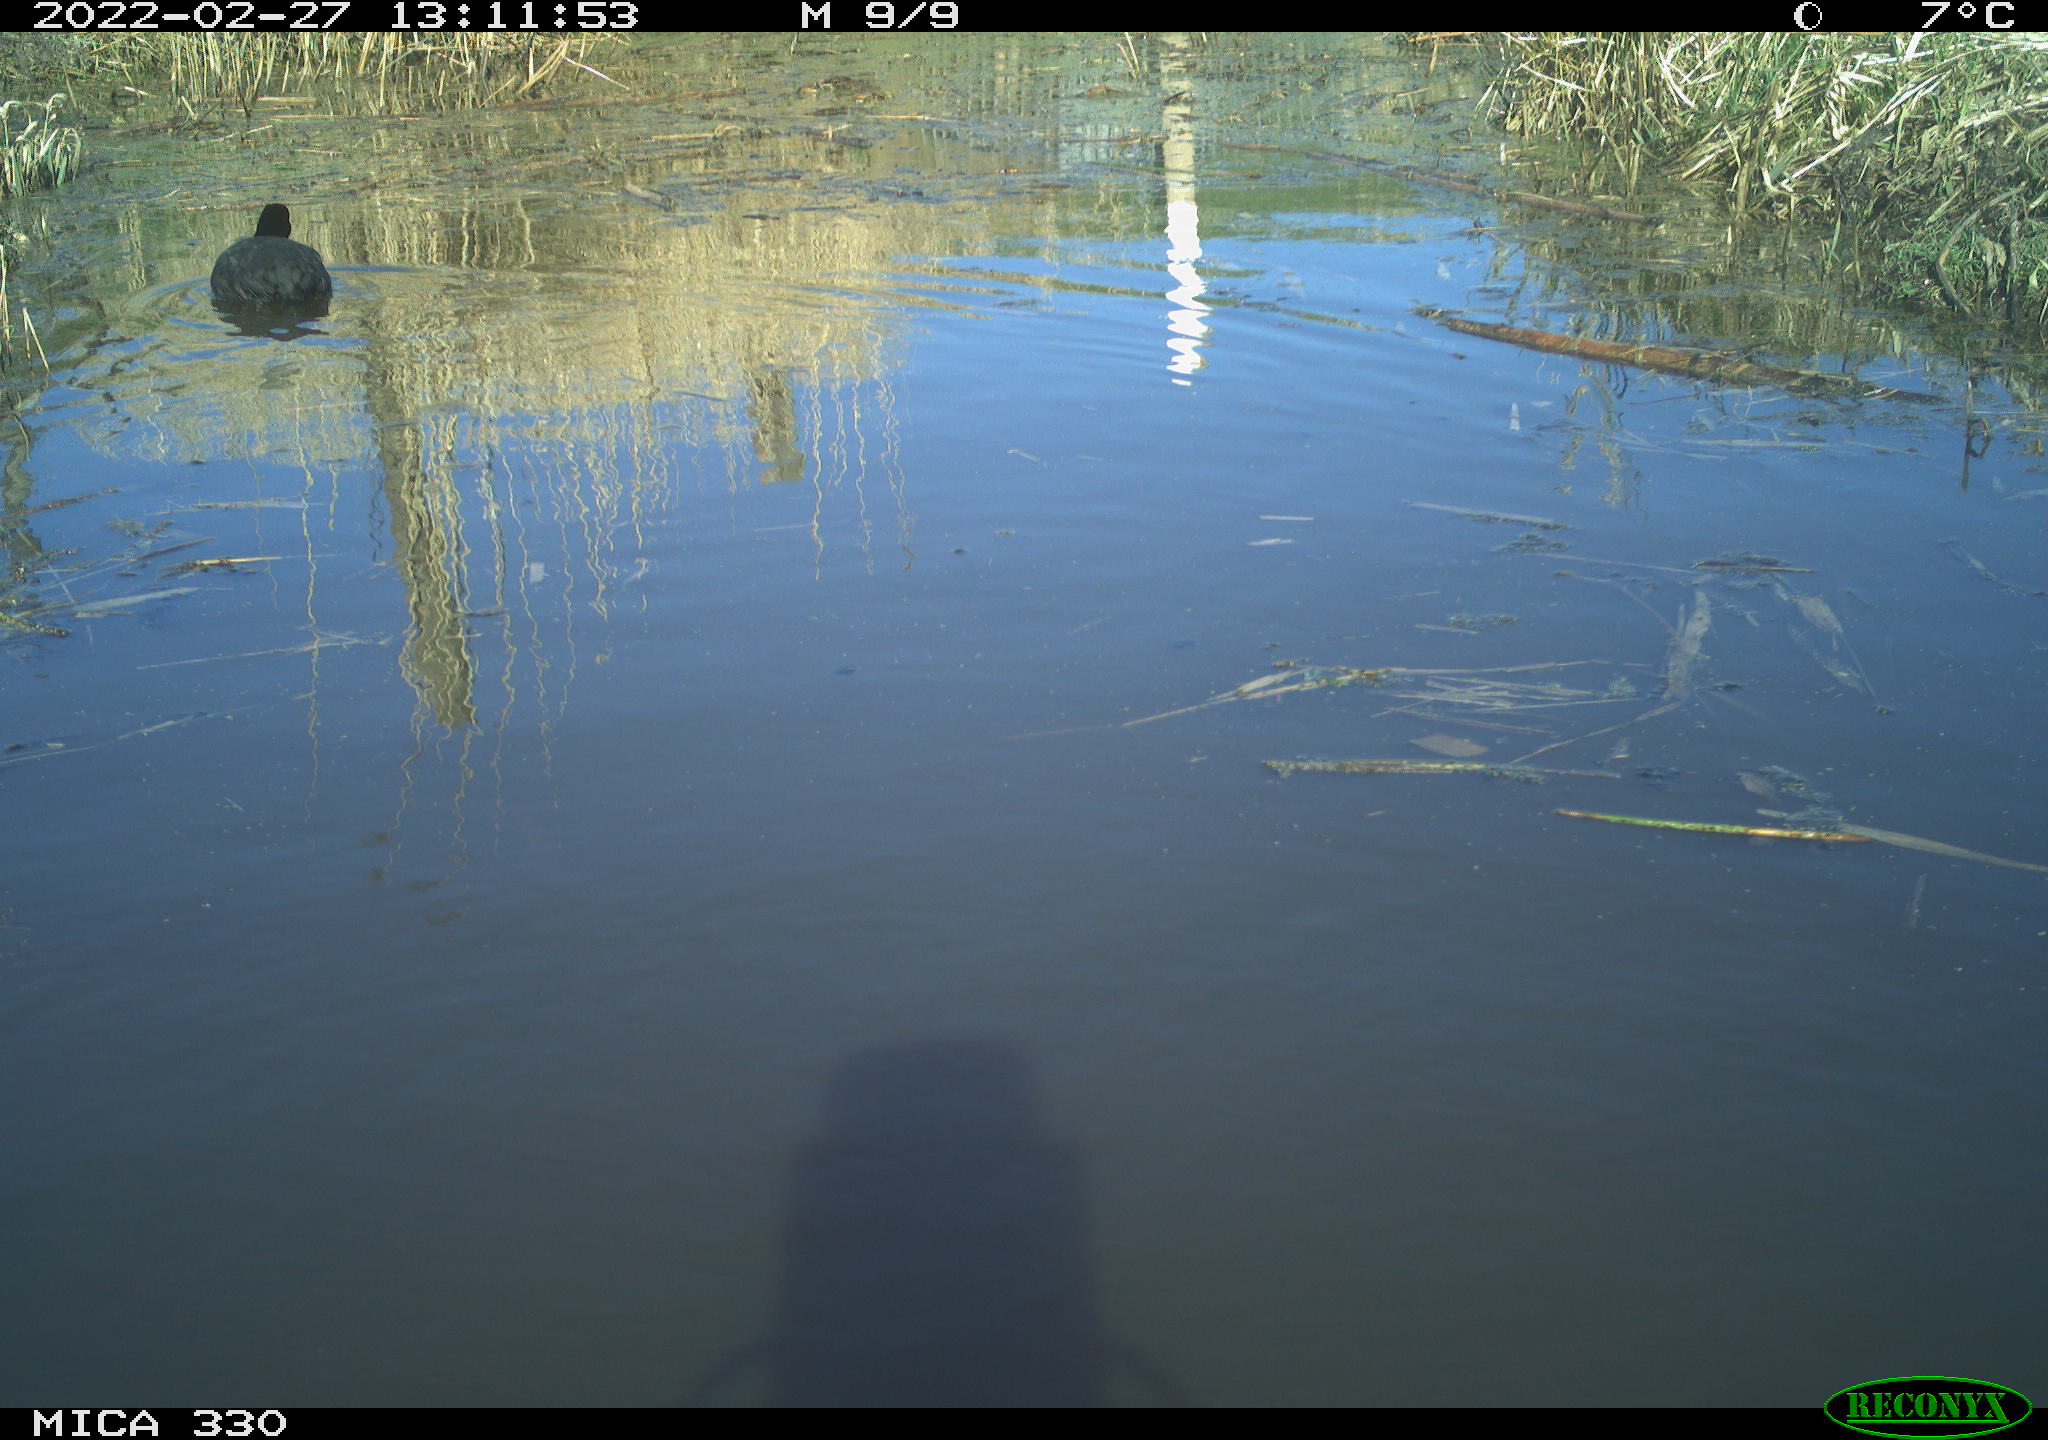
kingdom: Animalia
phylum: Chordata
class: Aves
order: Gruiformes
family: Rallidae
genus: Fulica
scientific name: Fulica atra
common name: Eurasian coot
